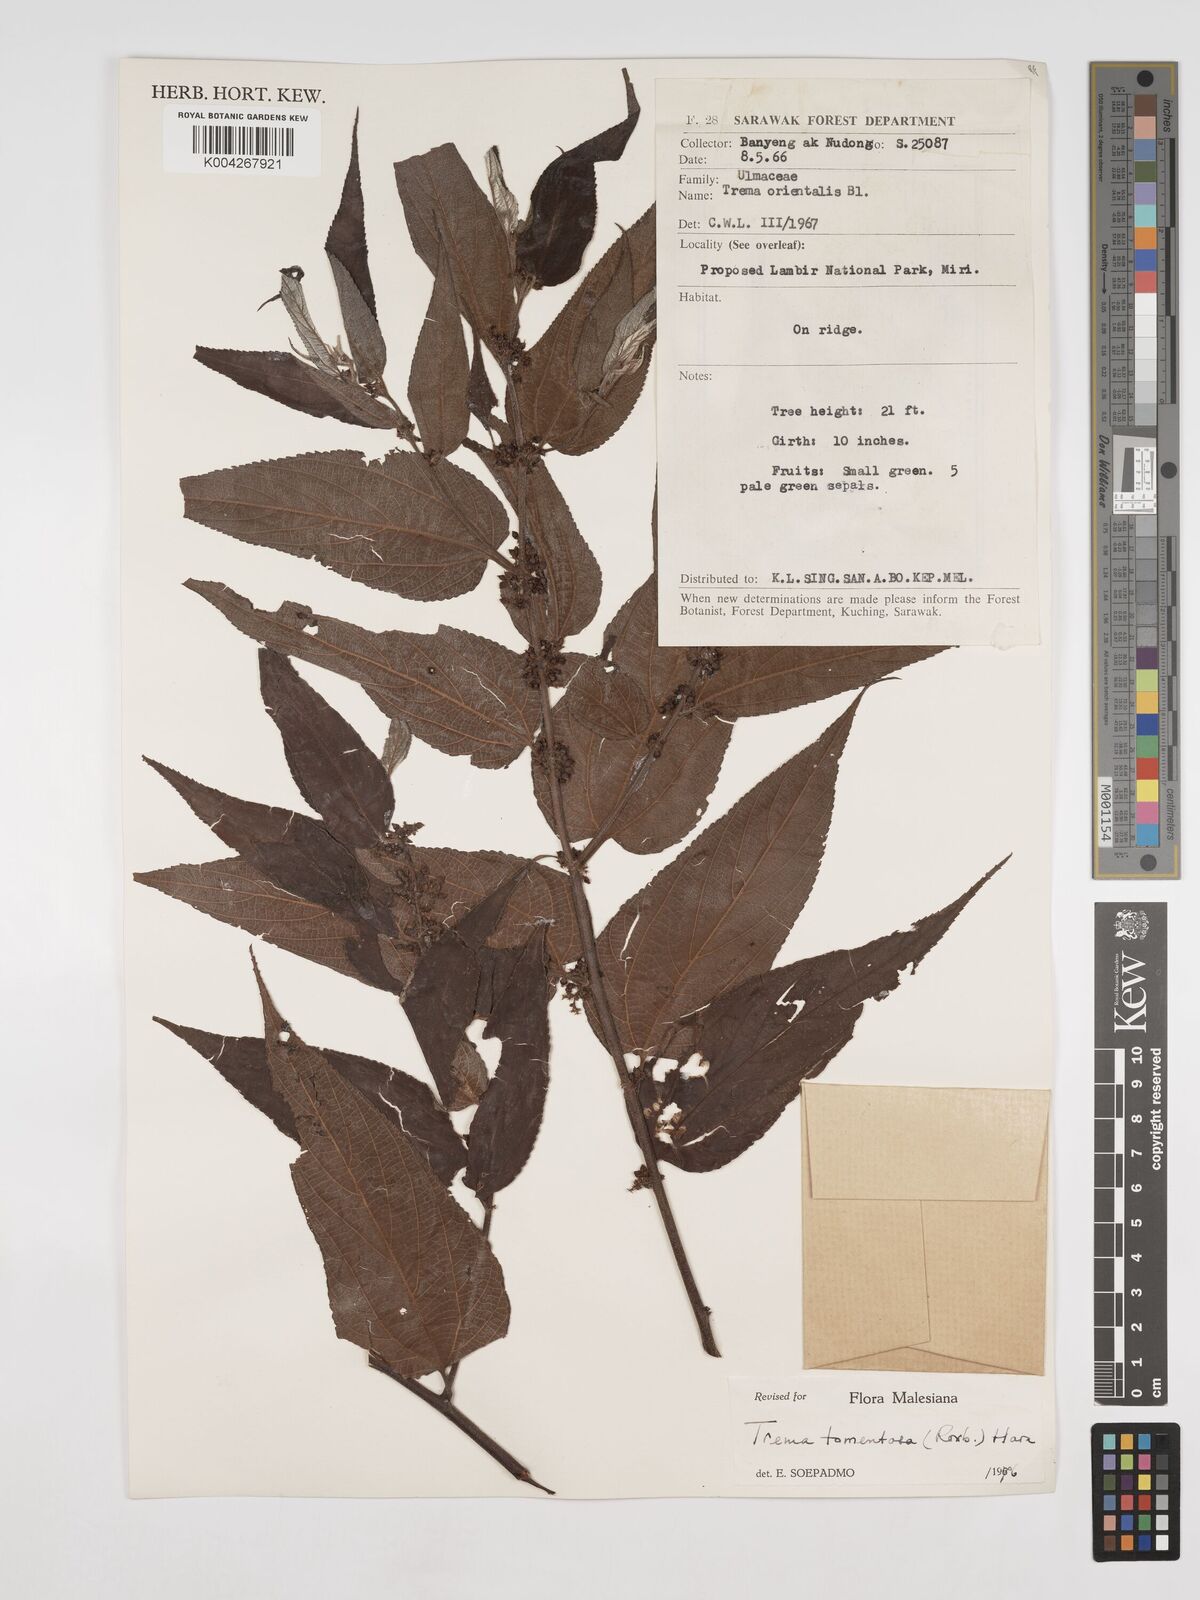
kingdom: Plantae
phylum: Tracheophyta
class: Magnoliopsida
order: Rosales
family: Cannabaceae
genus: Trema
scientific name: Trema tomentosum
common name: Peach-leaf-poisonbush
